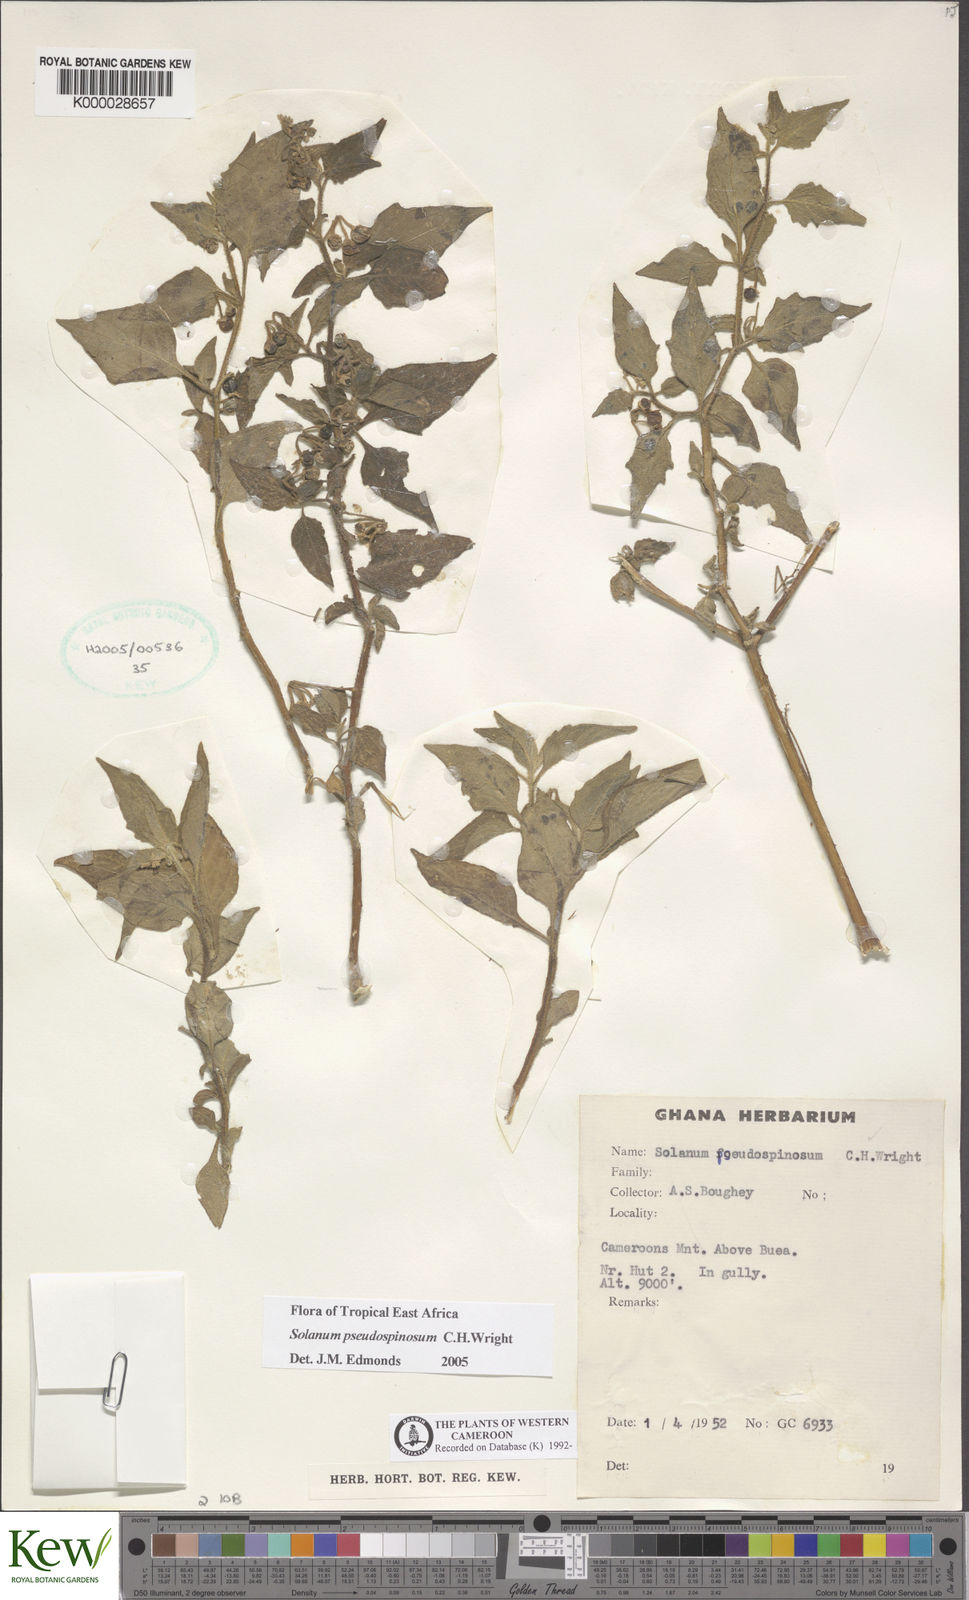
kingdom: Plantae
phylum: Tracheophyta
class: Magnoliopsida
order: Solanales
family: Solanaceae
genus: Solanum
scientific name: Solanum pseudospinosum
